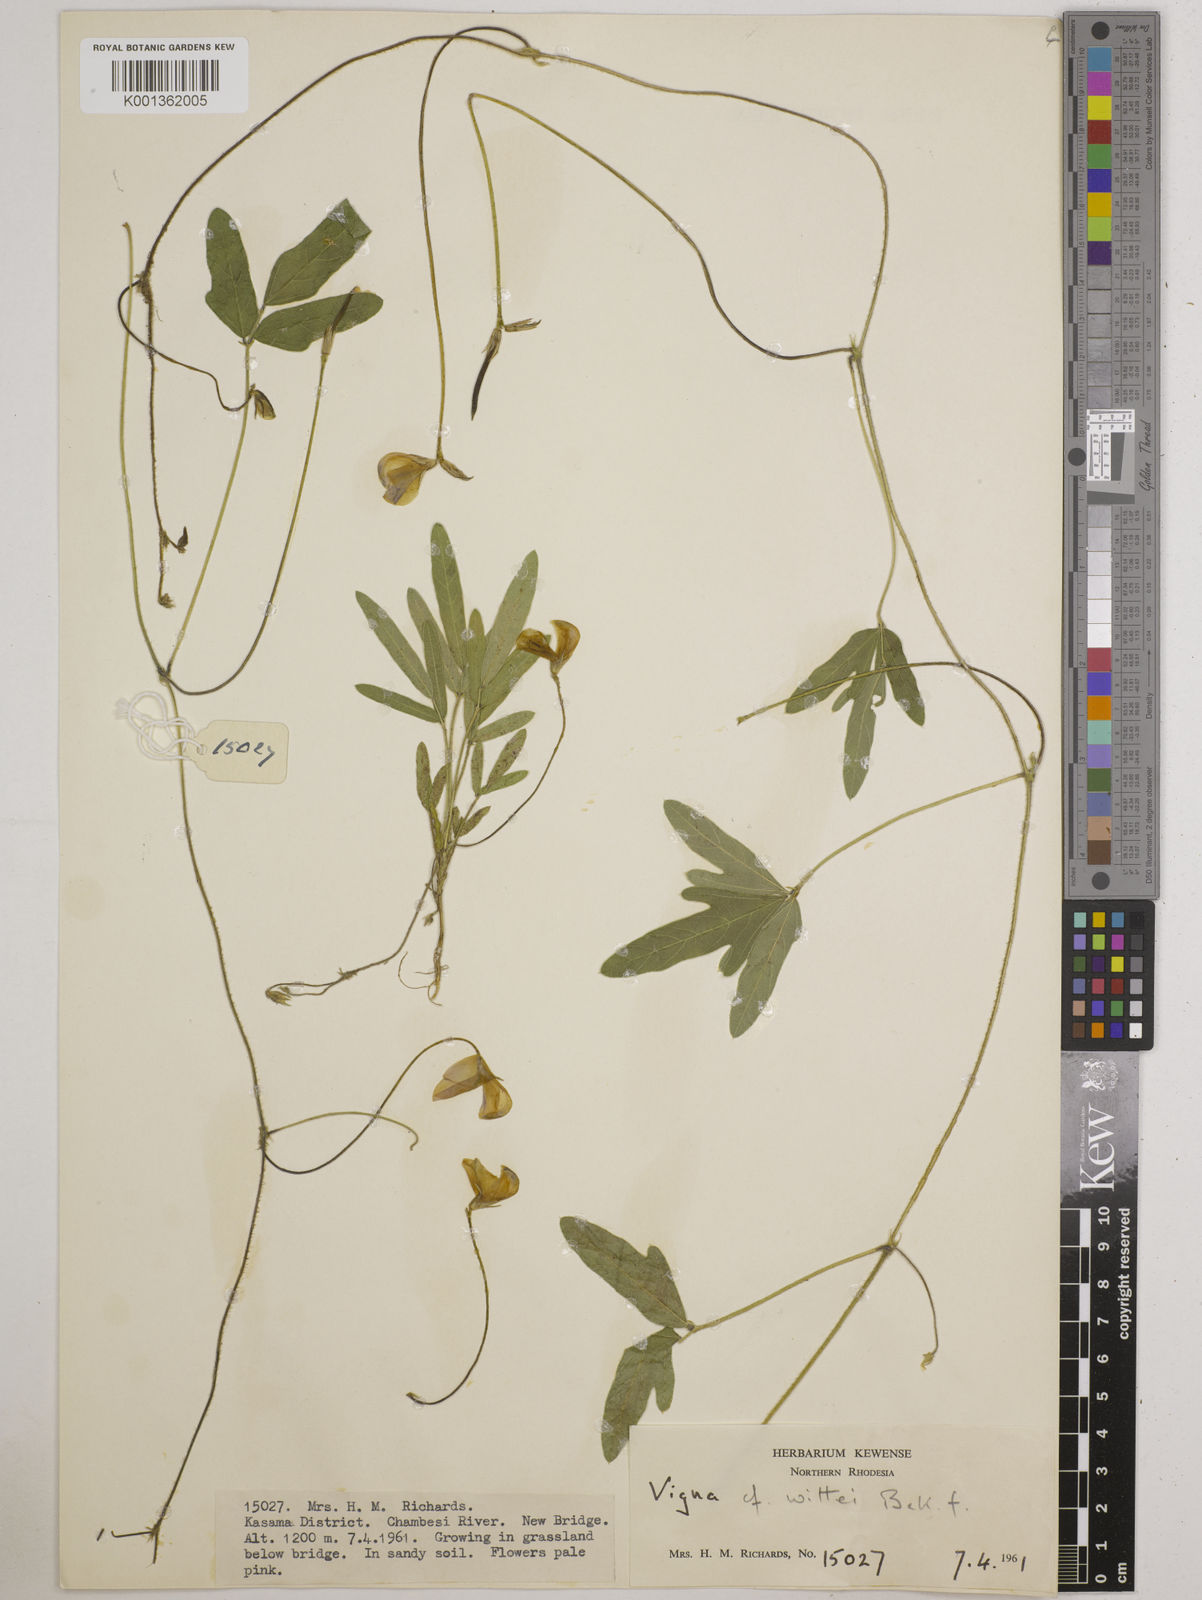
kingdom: Plantae
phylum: Tracheophyta
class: Magnoliopsida
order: Fabales
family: Fabaceae
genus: Vigna
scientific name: Vigna radicans
